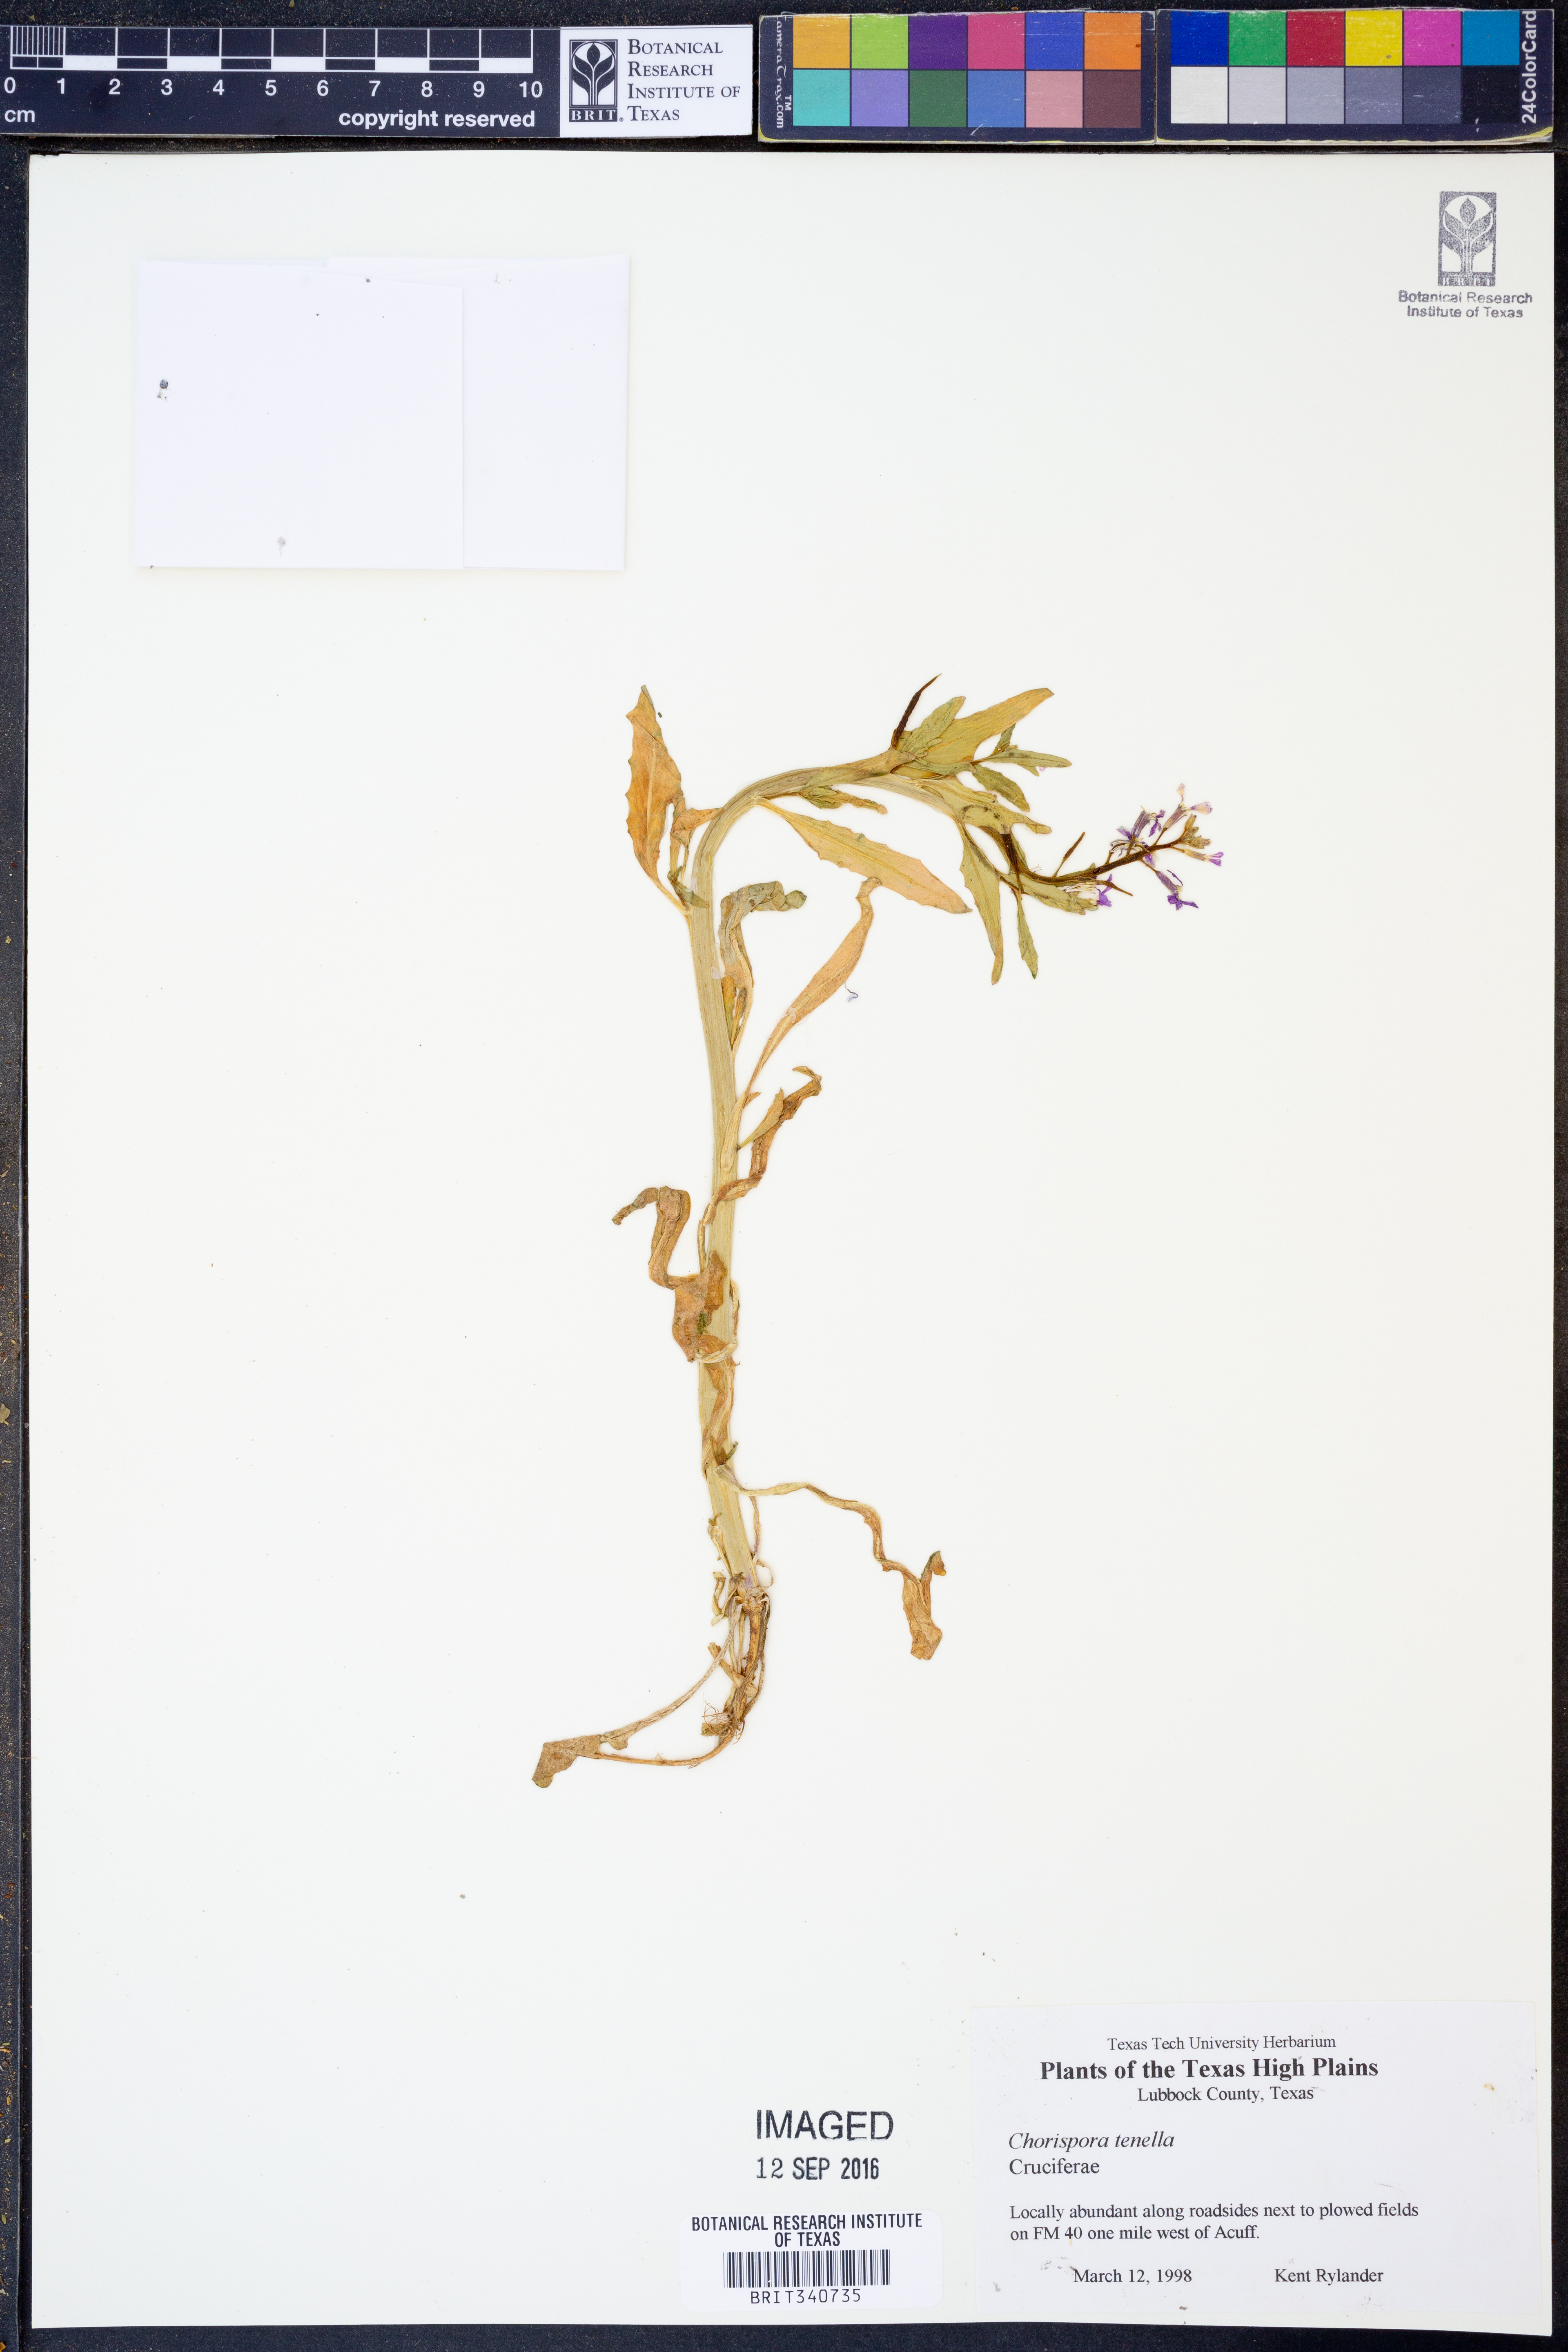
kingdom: Plantae
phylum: Tracheophyta
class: Magnoliopsida
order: Brassicales
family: Brassicaceae
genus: Chorispora
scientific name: Chorispora tenella
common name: Crossflower
